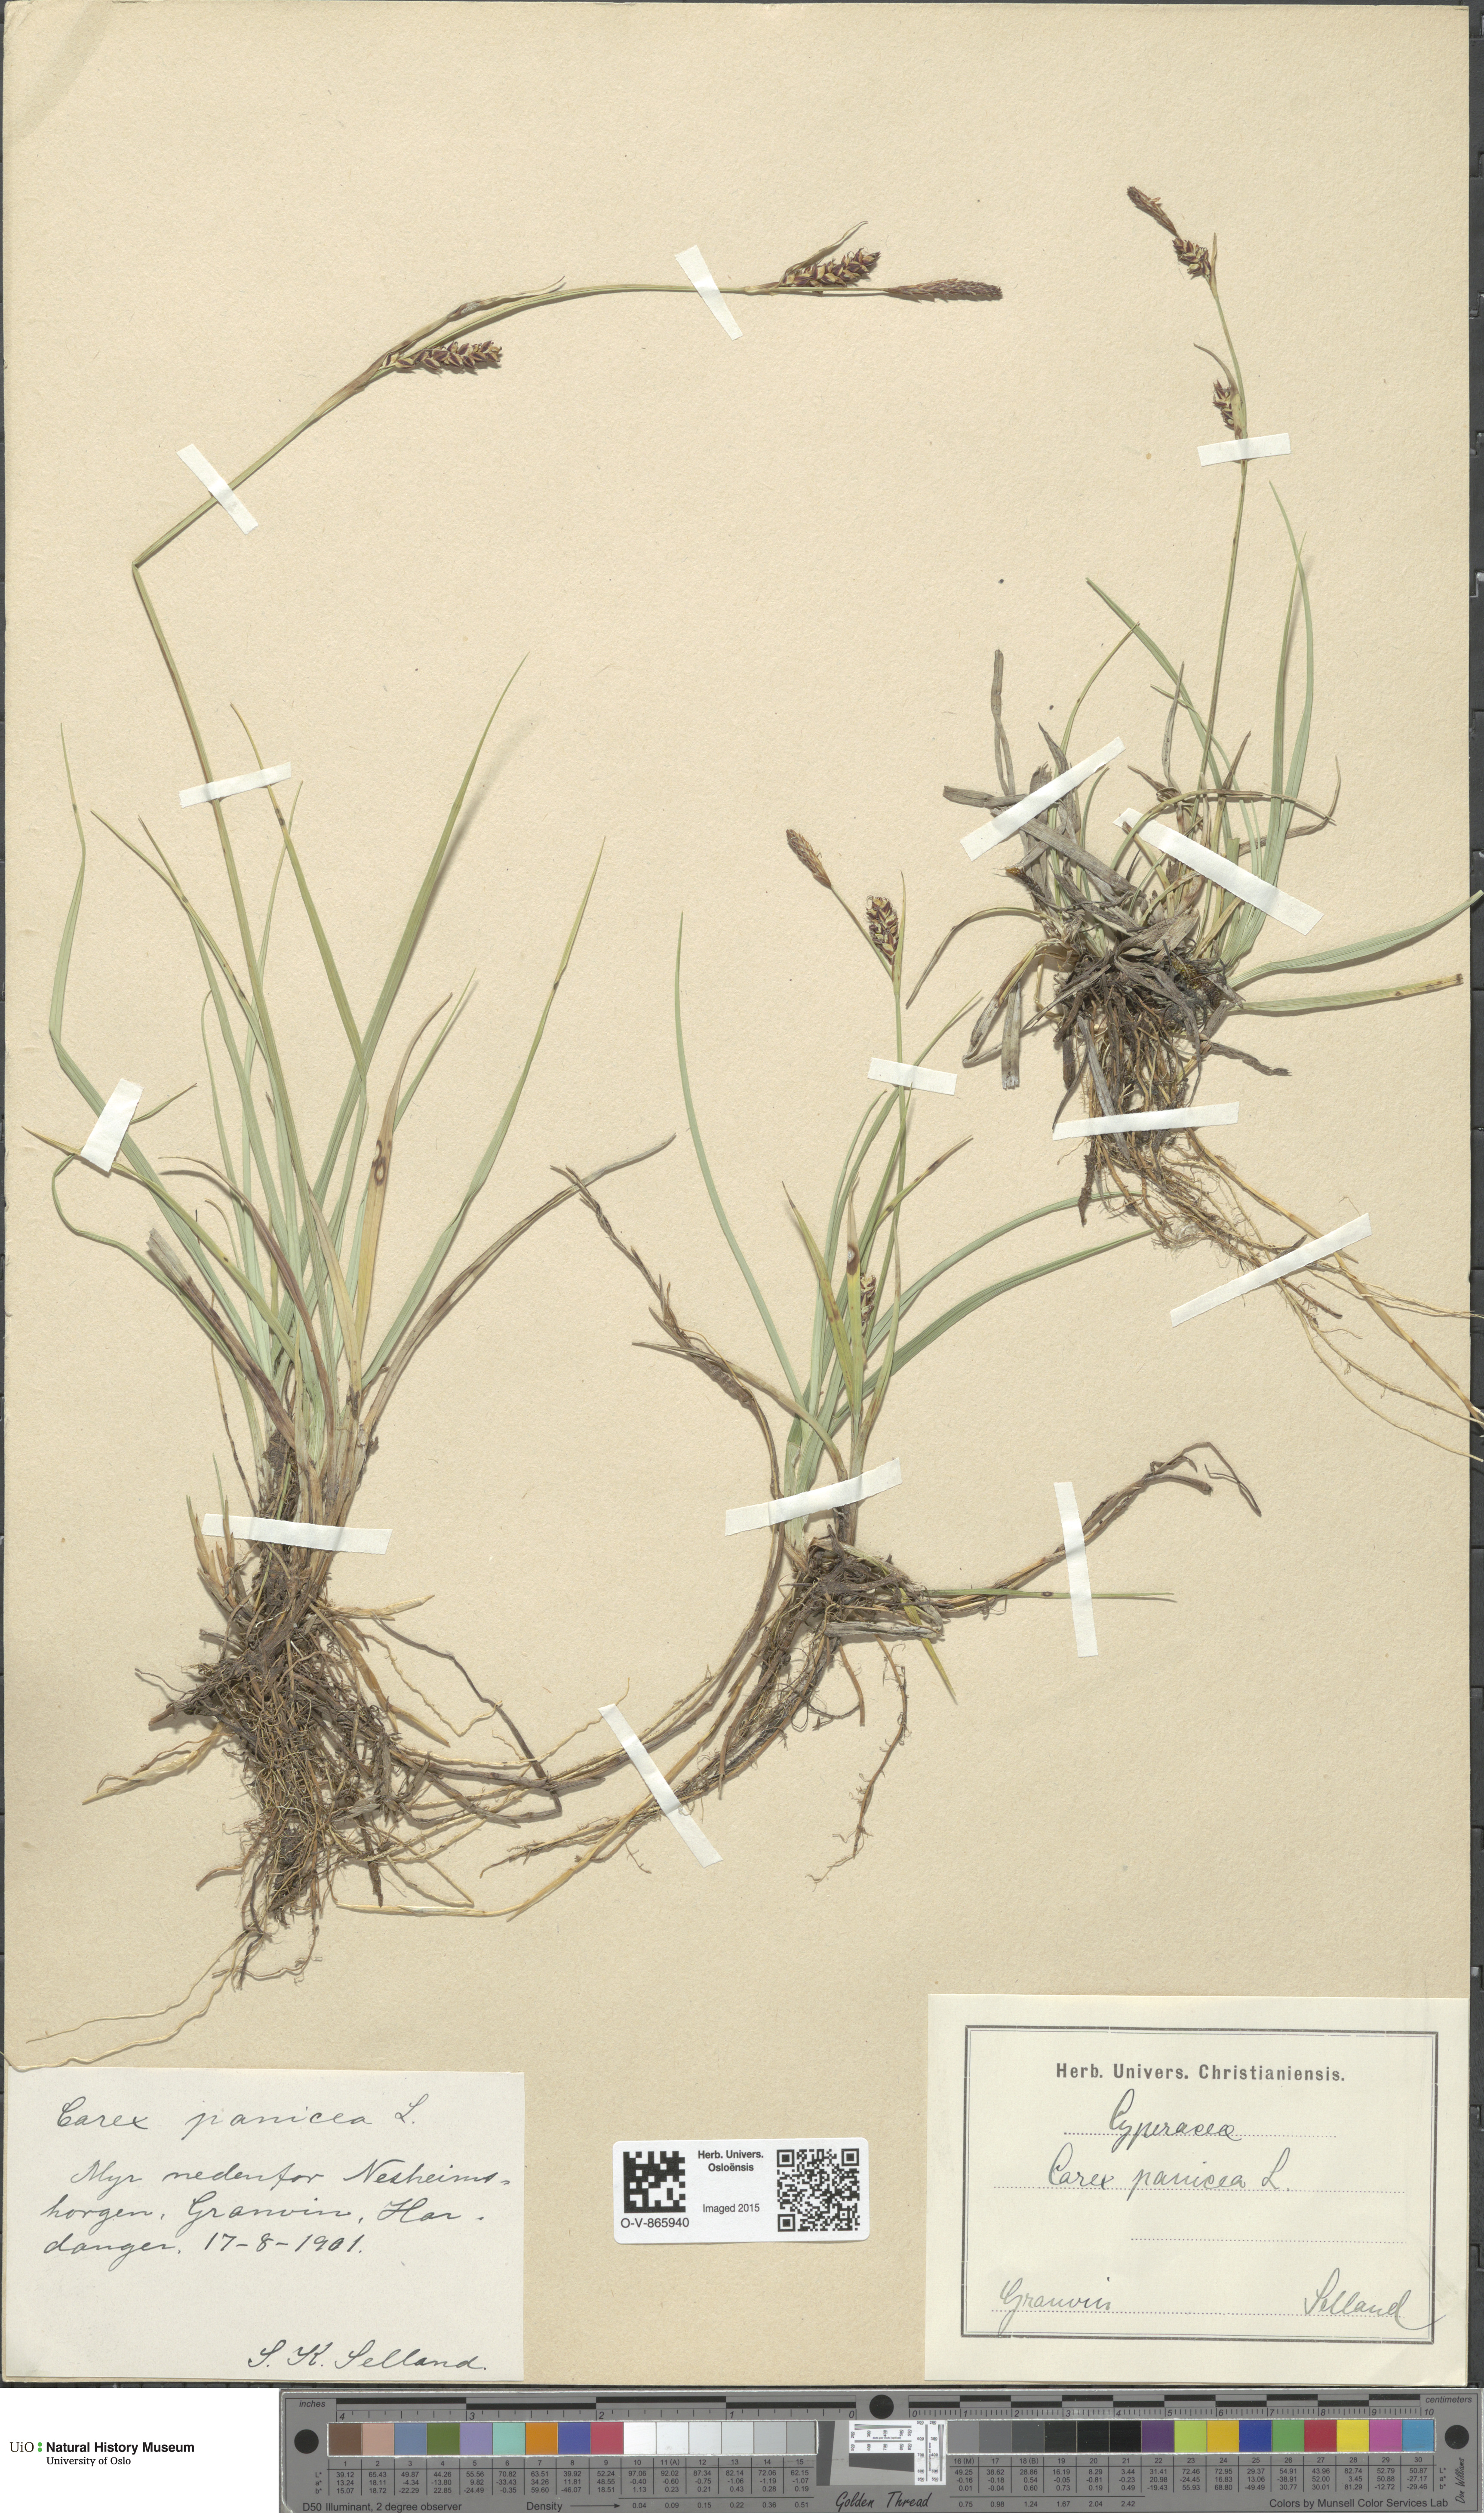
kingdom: Plantae
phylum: Tracheophyta
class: Liliopsida
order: Poales
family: Cyperaceae
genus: Carex
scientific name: Carex panicea
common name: Carnation sedge
